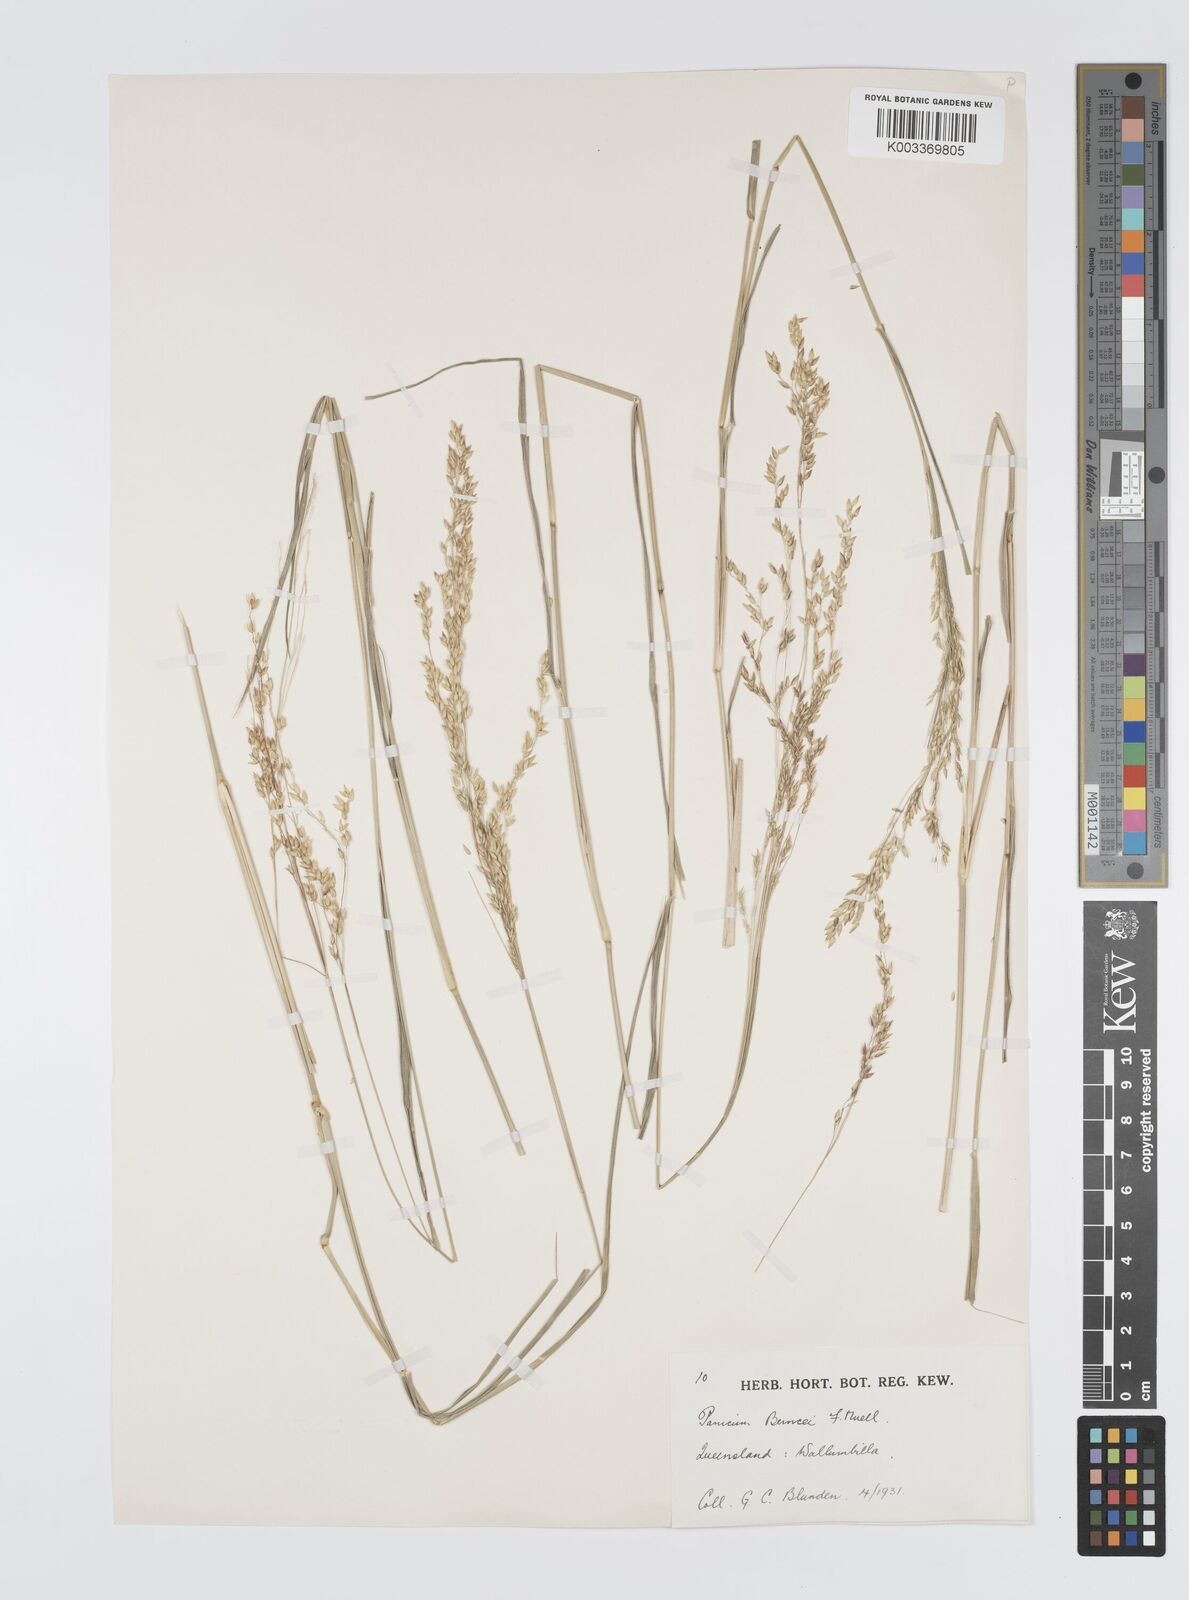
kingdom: Plantae
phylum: Tracheophyta
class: Liliopsida
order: Poales
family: Poaceae
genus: Panicum
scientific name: Panicum buncei
